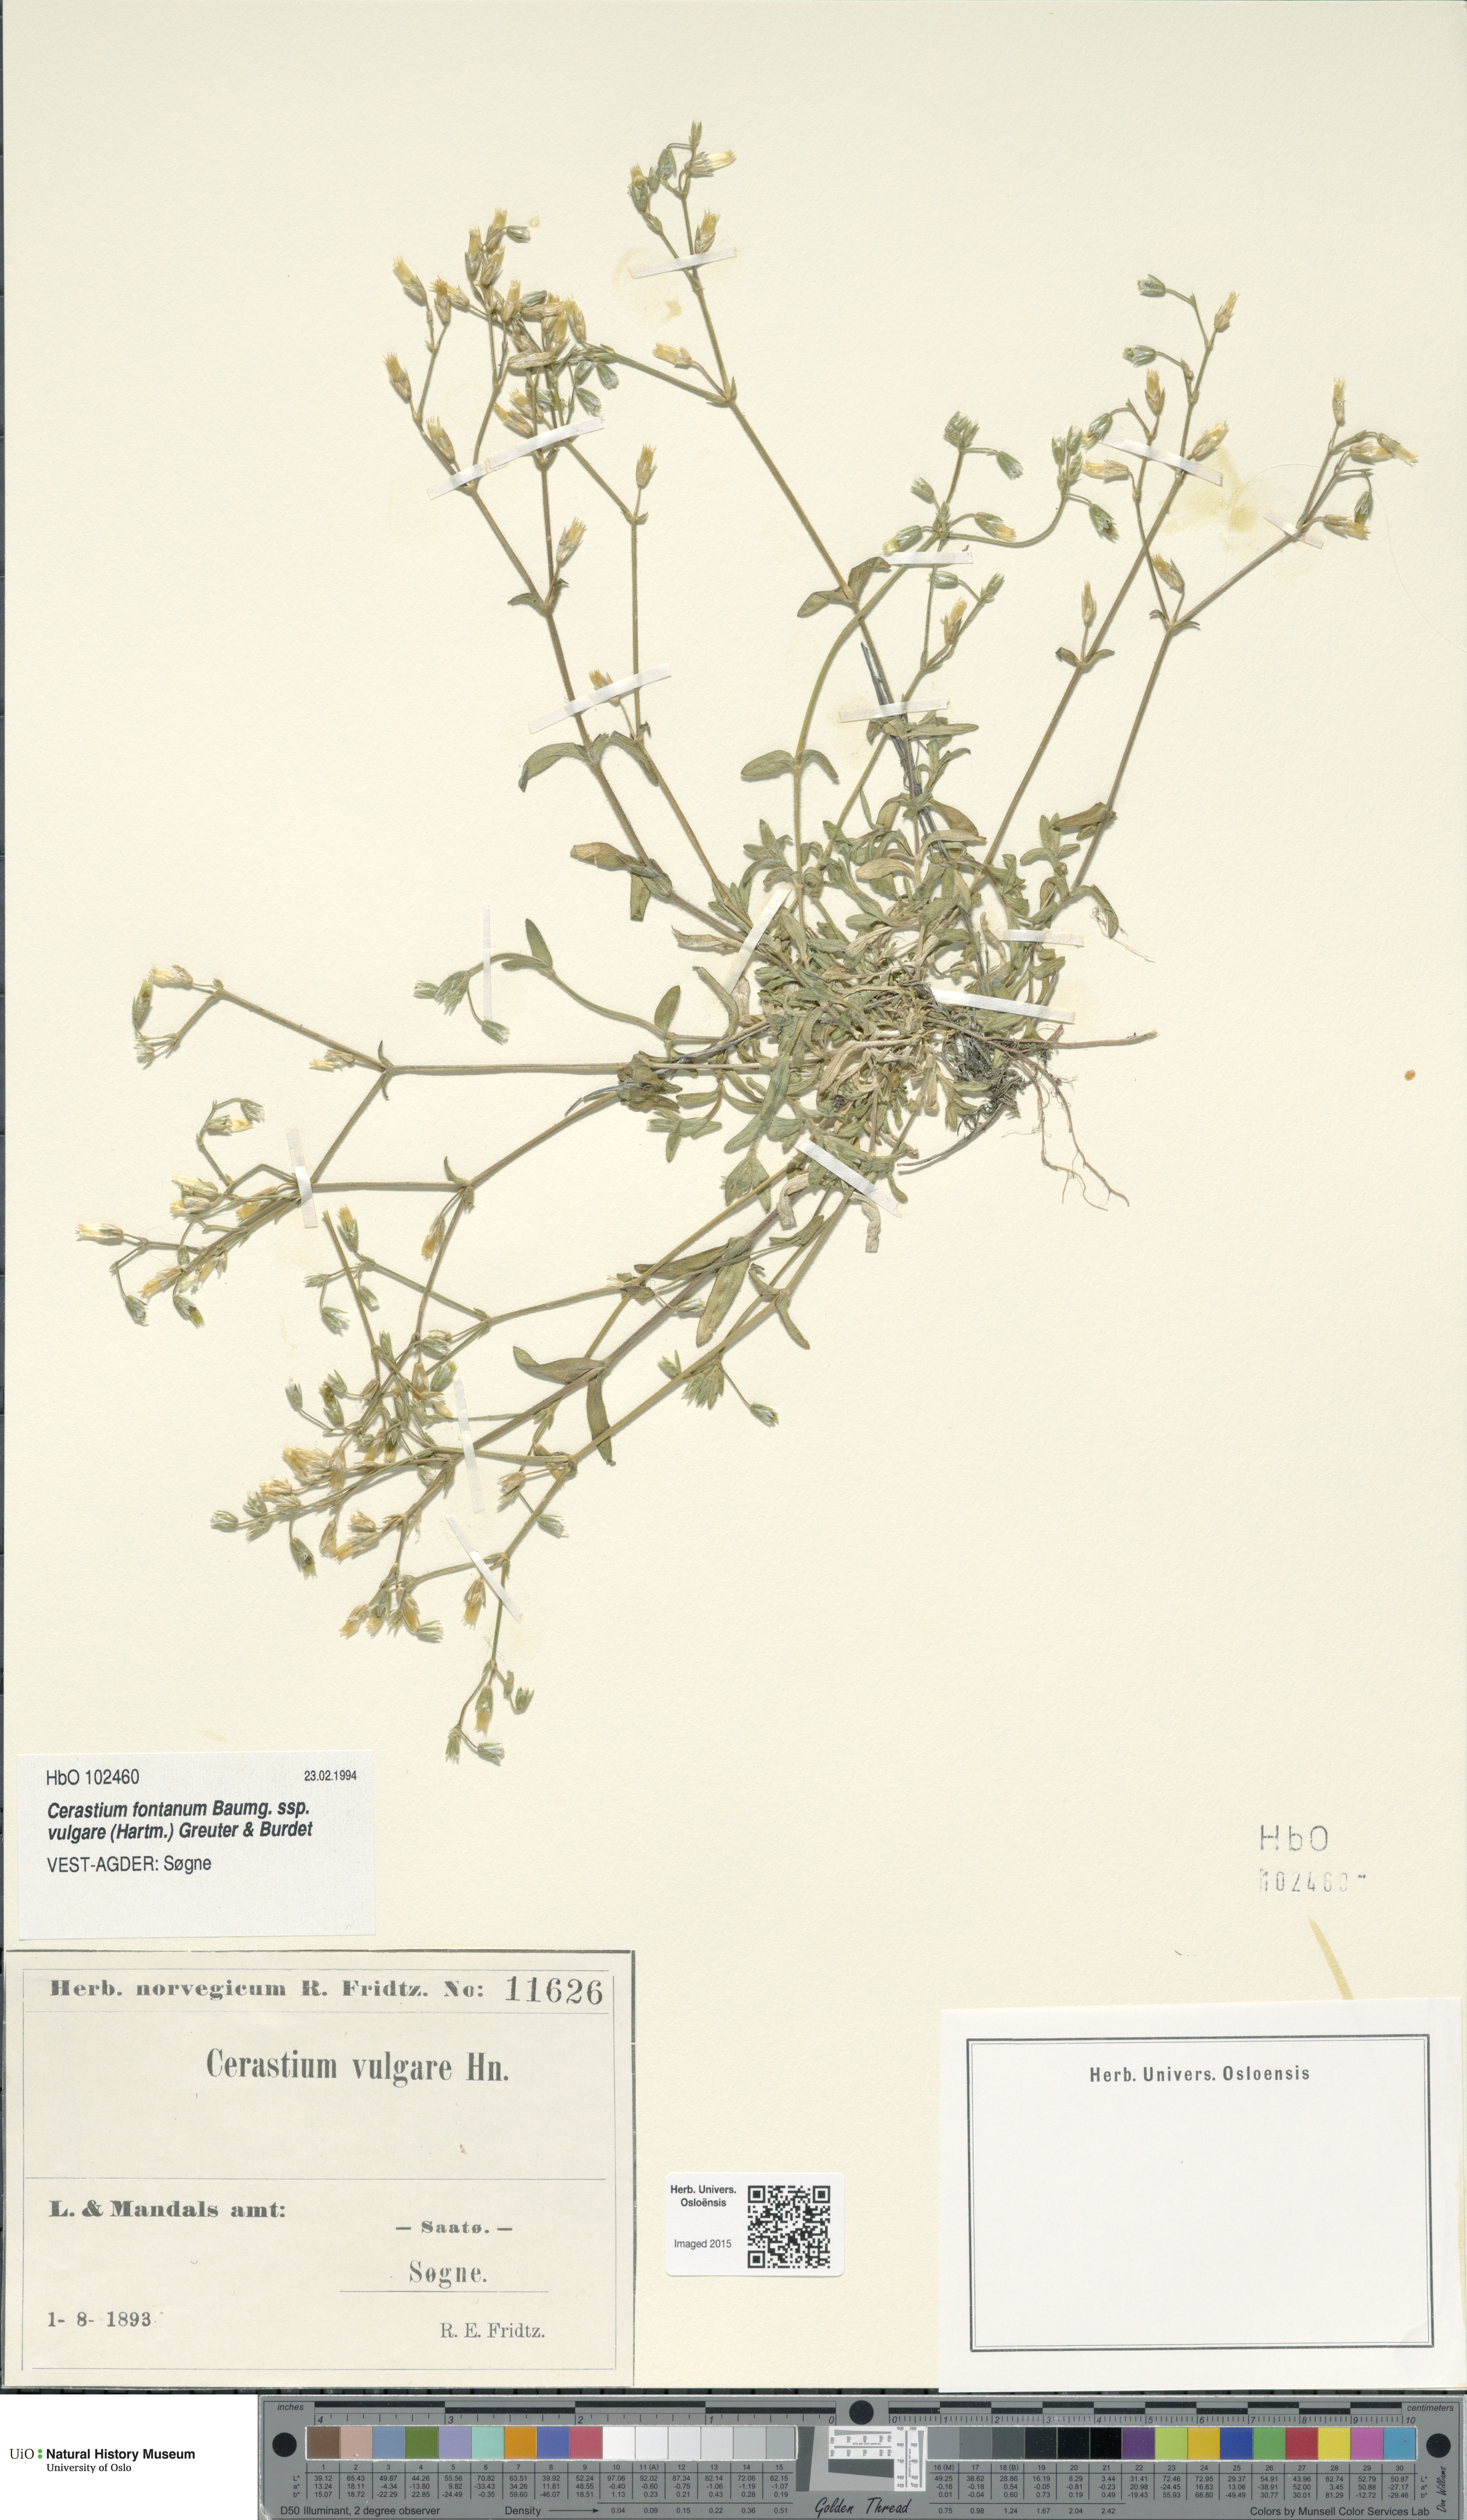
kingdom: Plantae
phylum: Tracheophyta
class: Magnoliopsida
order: Caryophyllales
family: Caryophyllaceae
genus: Cerastium
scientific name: Cerastium holosteoides
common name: Big chickweed
